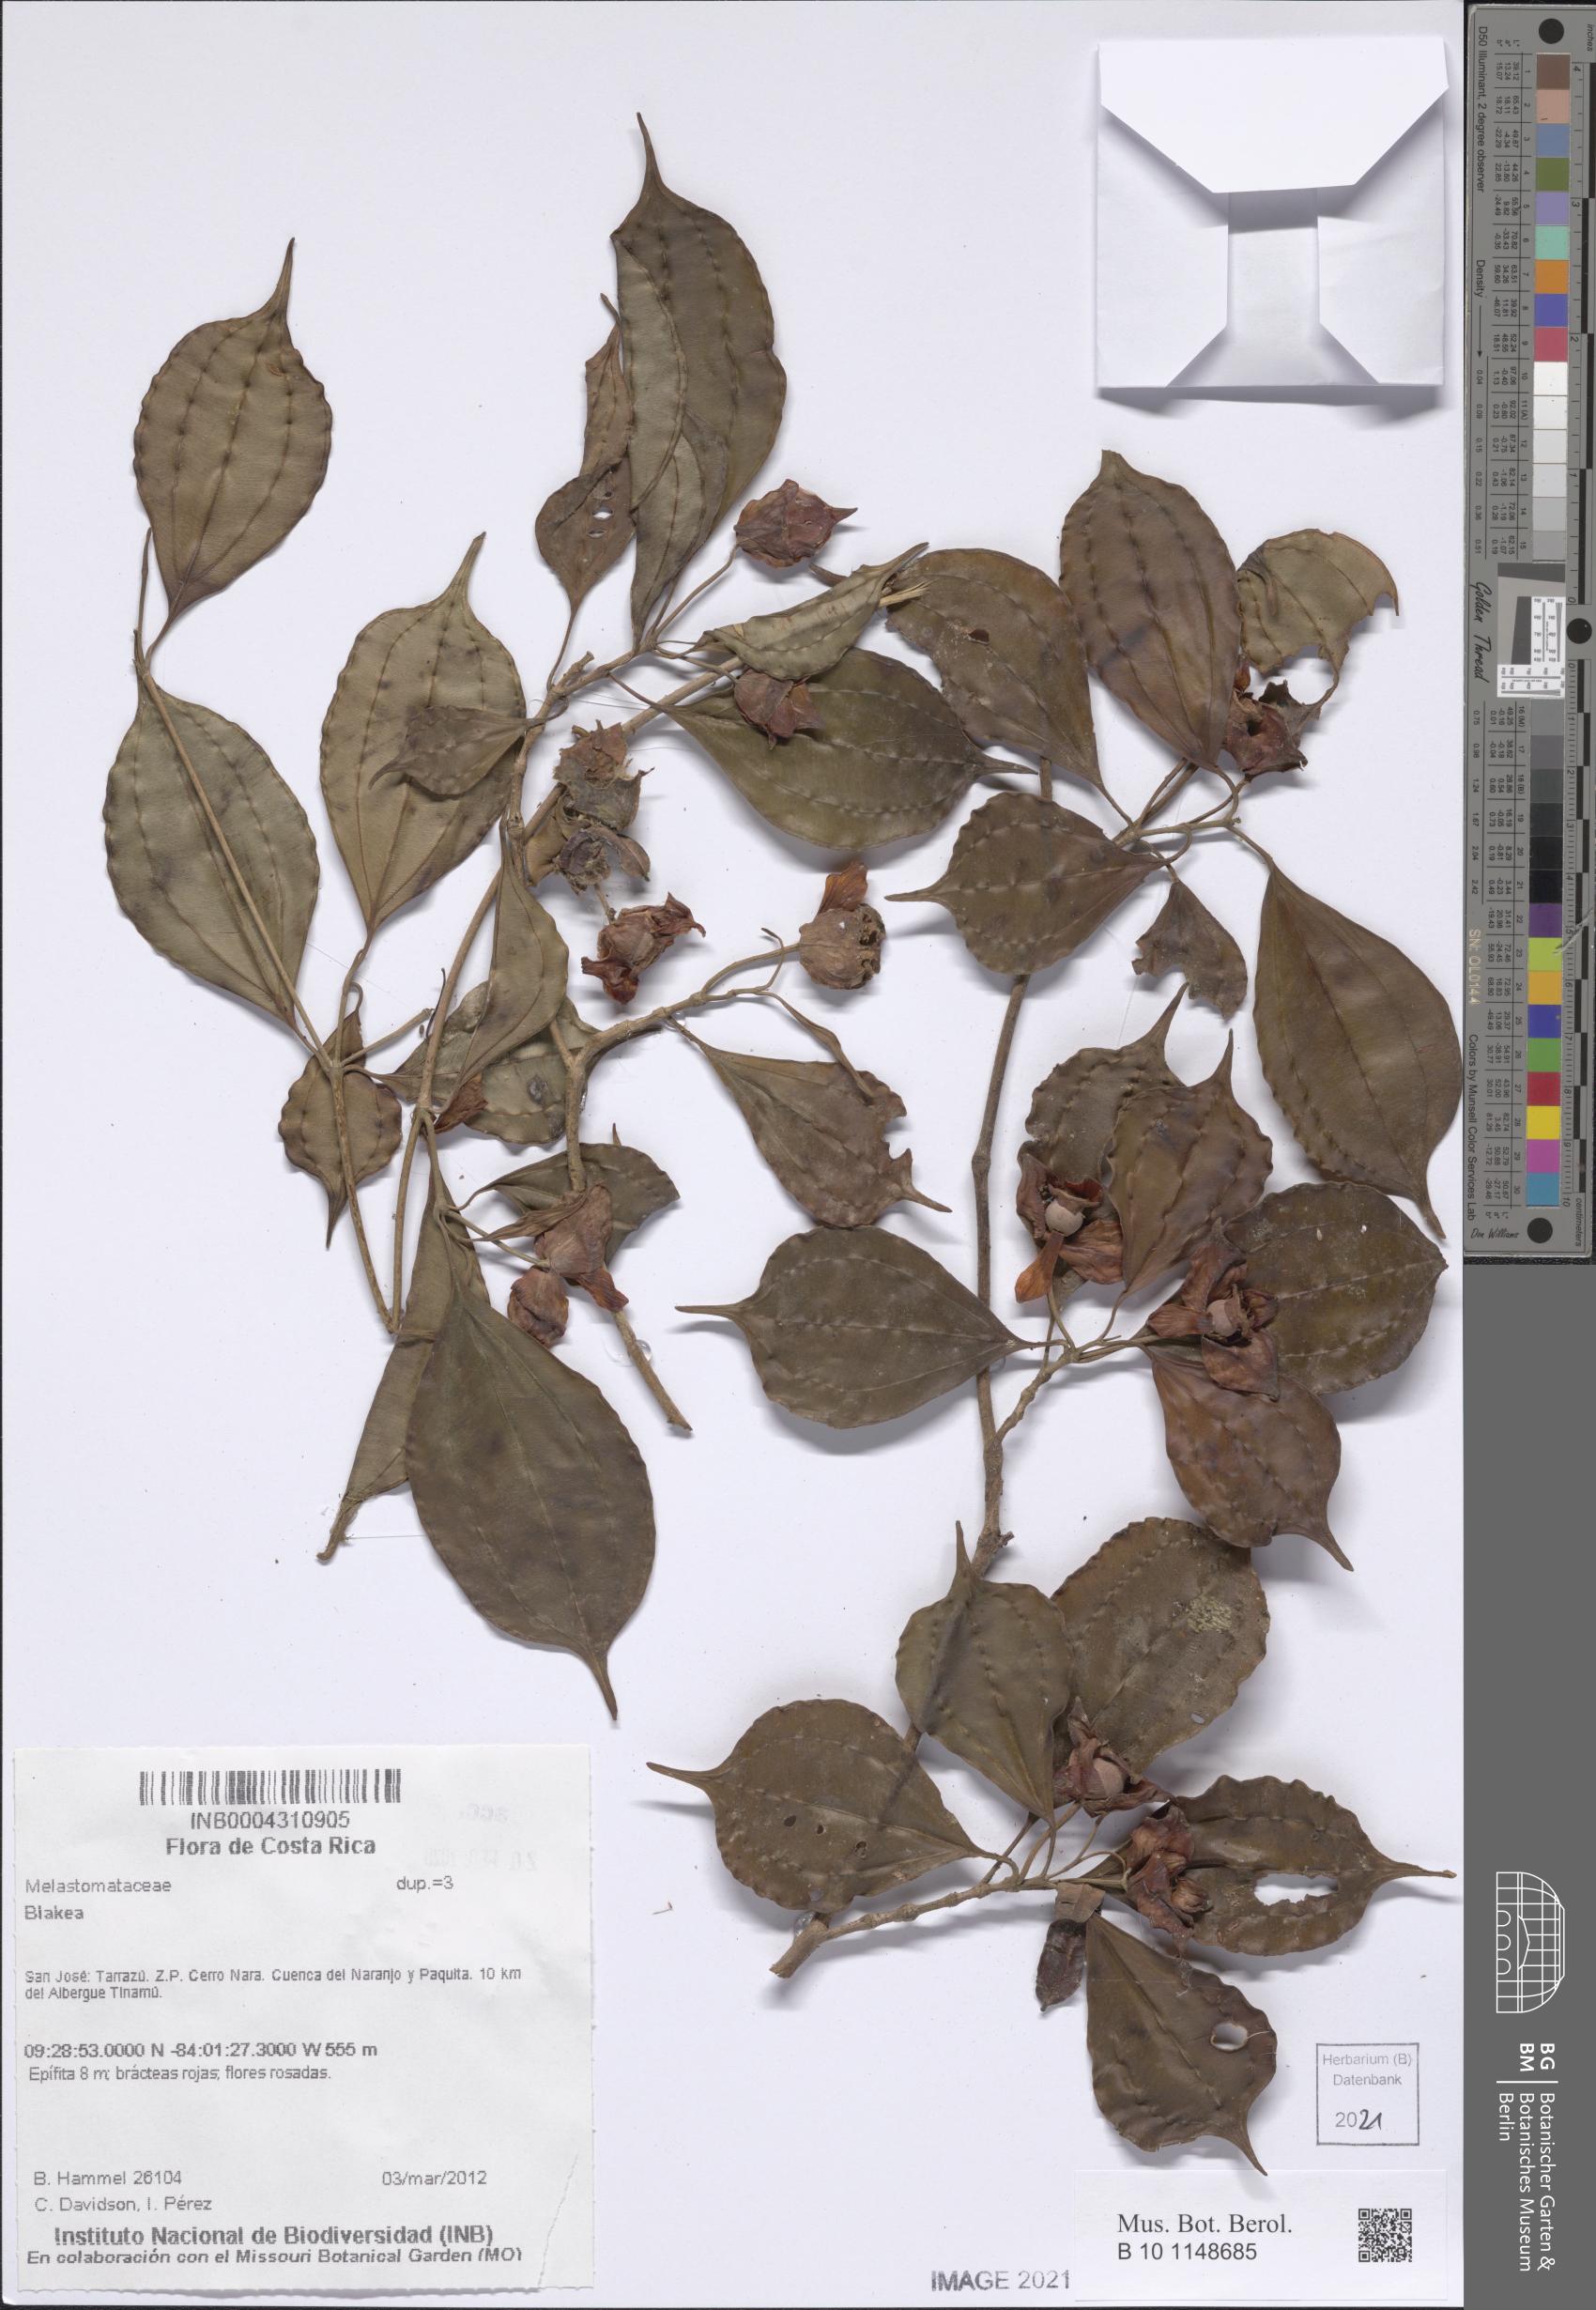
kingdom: Plantae
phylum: Tracheophyta
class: Magnoliopsida
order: Myrtales
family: Melastomataceae
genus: Blakea
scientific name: Blakea
